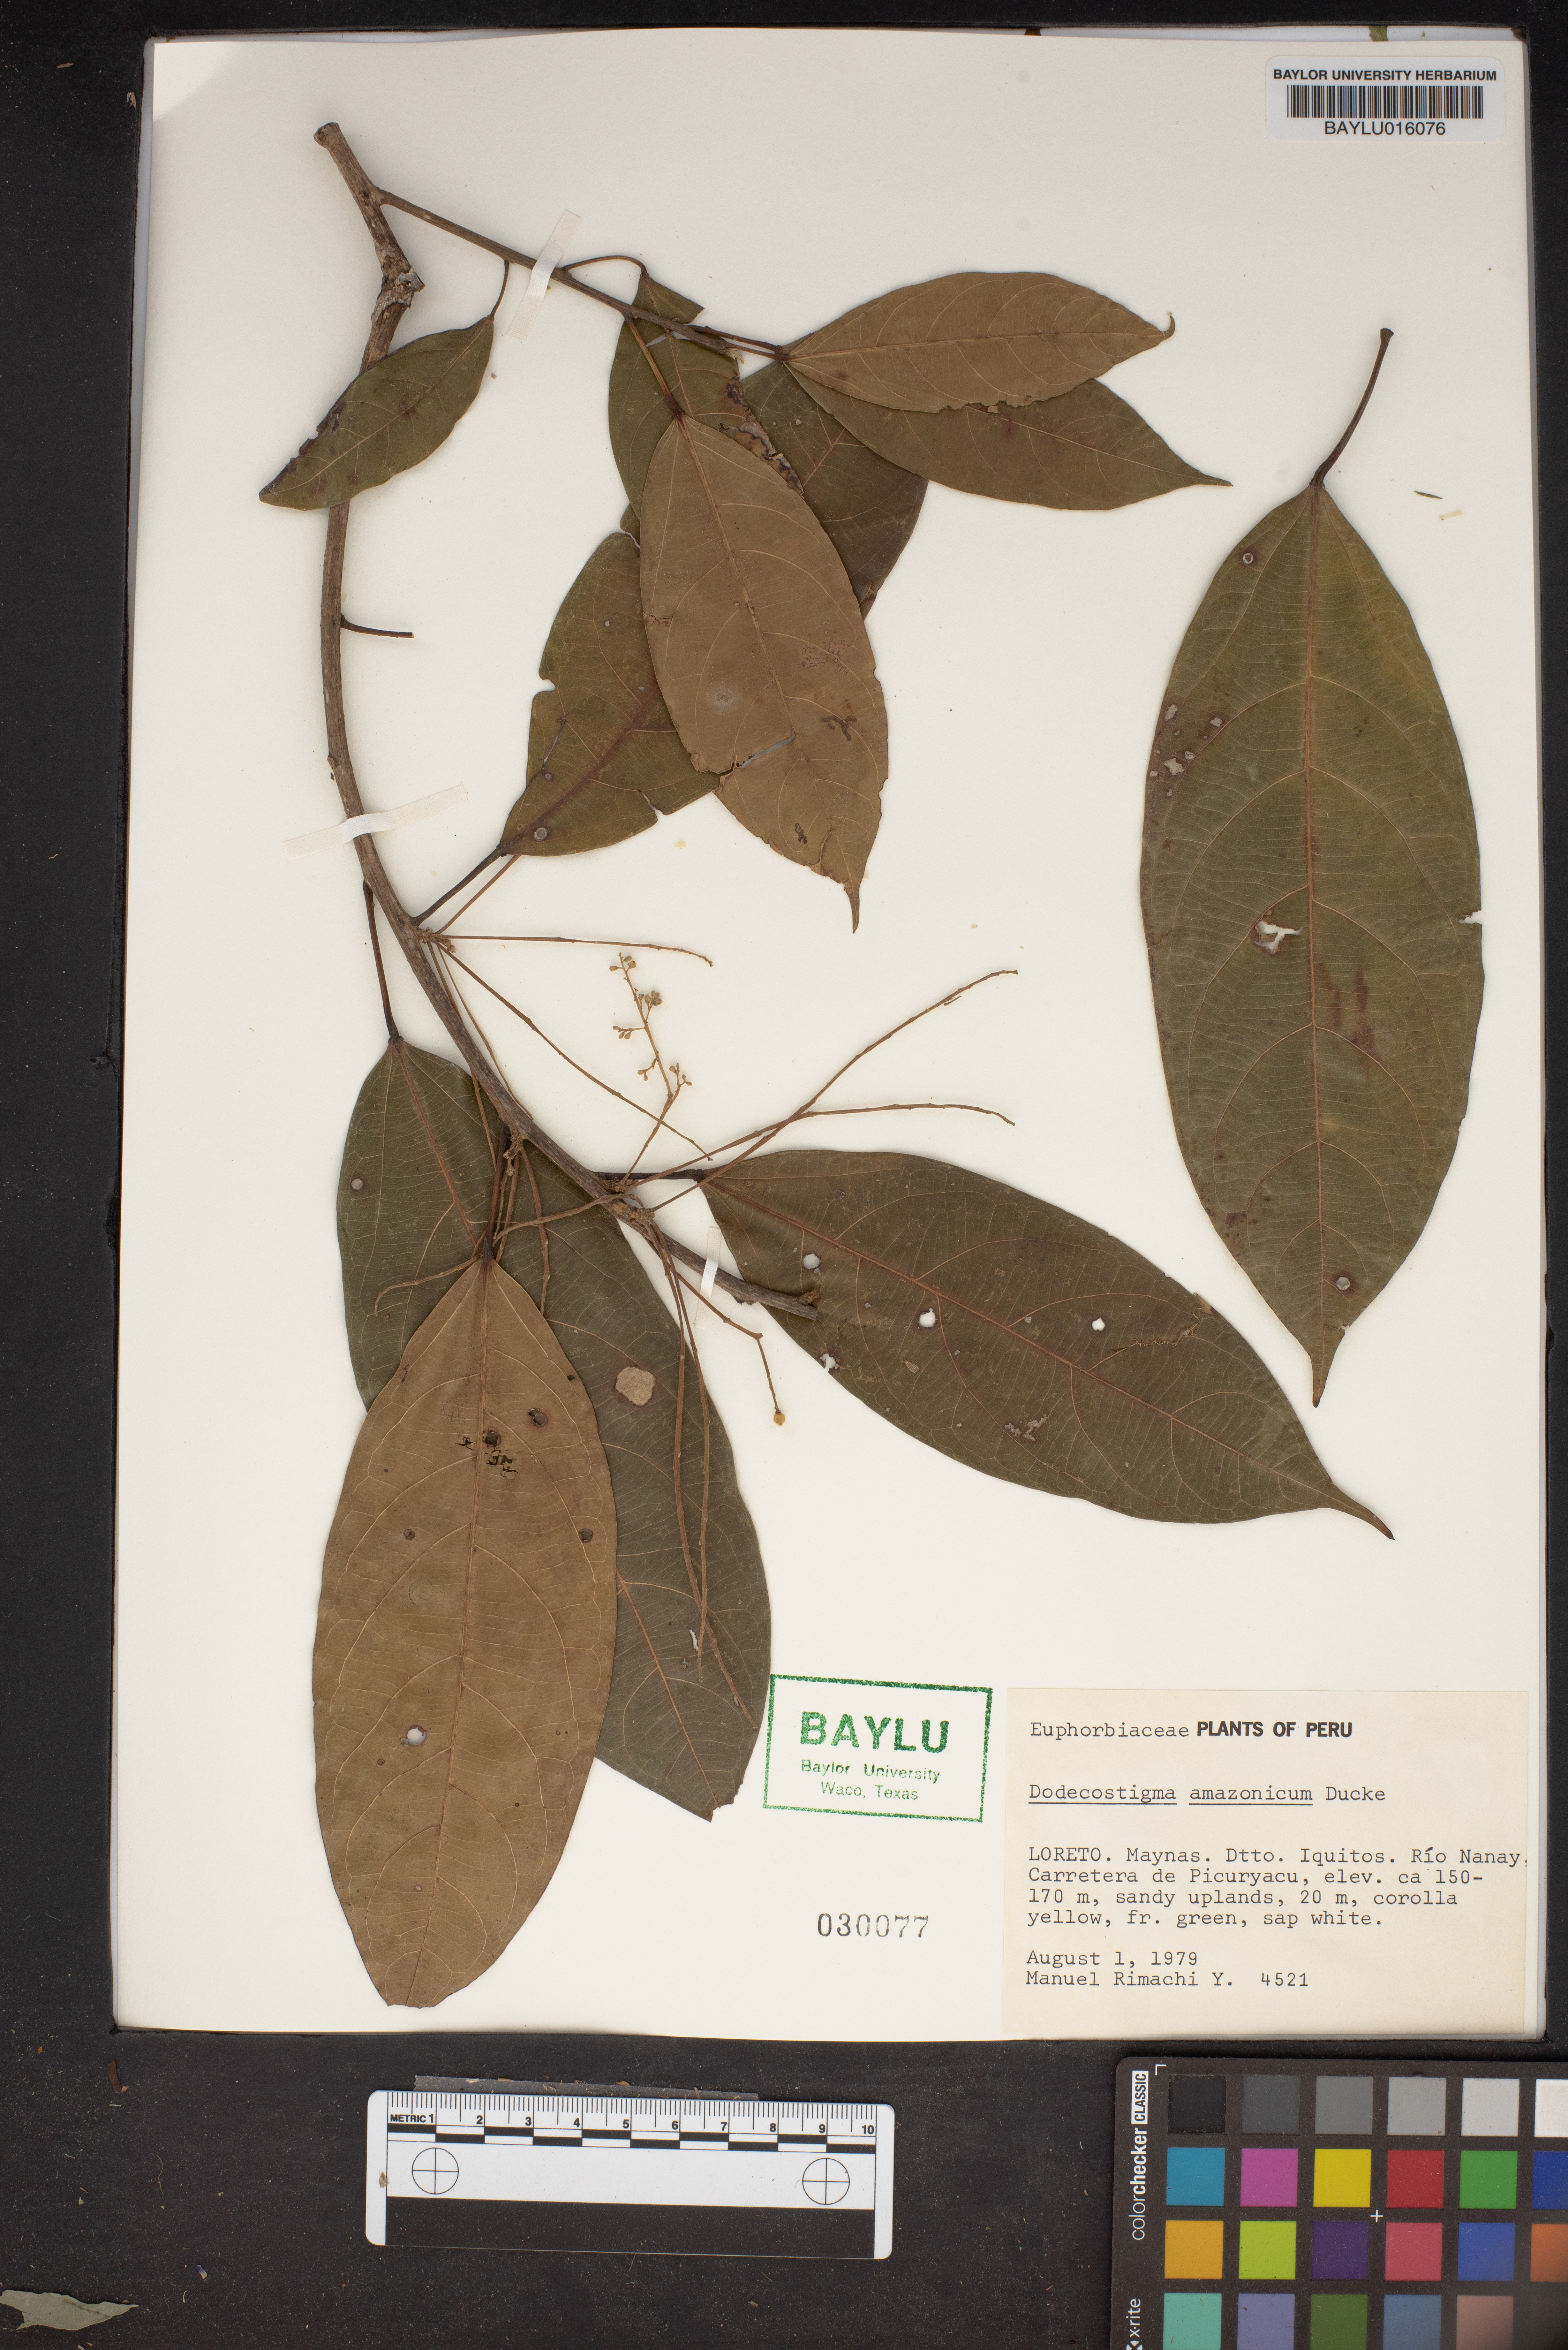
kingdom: Plantae
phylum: Tracheophyta
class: Magnoliopsida
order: Malpighiales
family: Euphorbiaceae
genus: Dodecastigma
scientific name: Dodecastigma amazonicum
